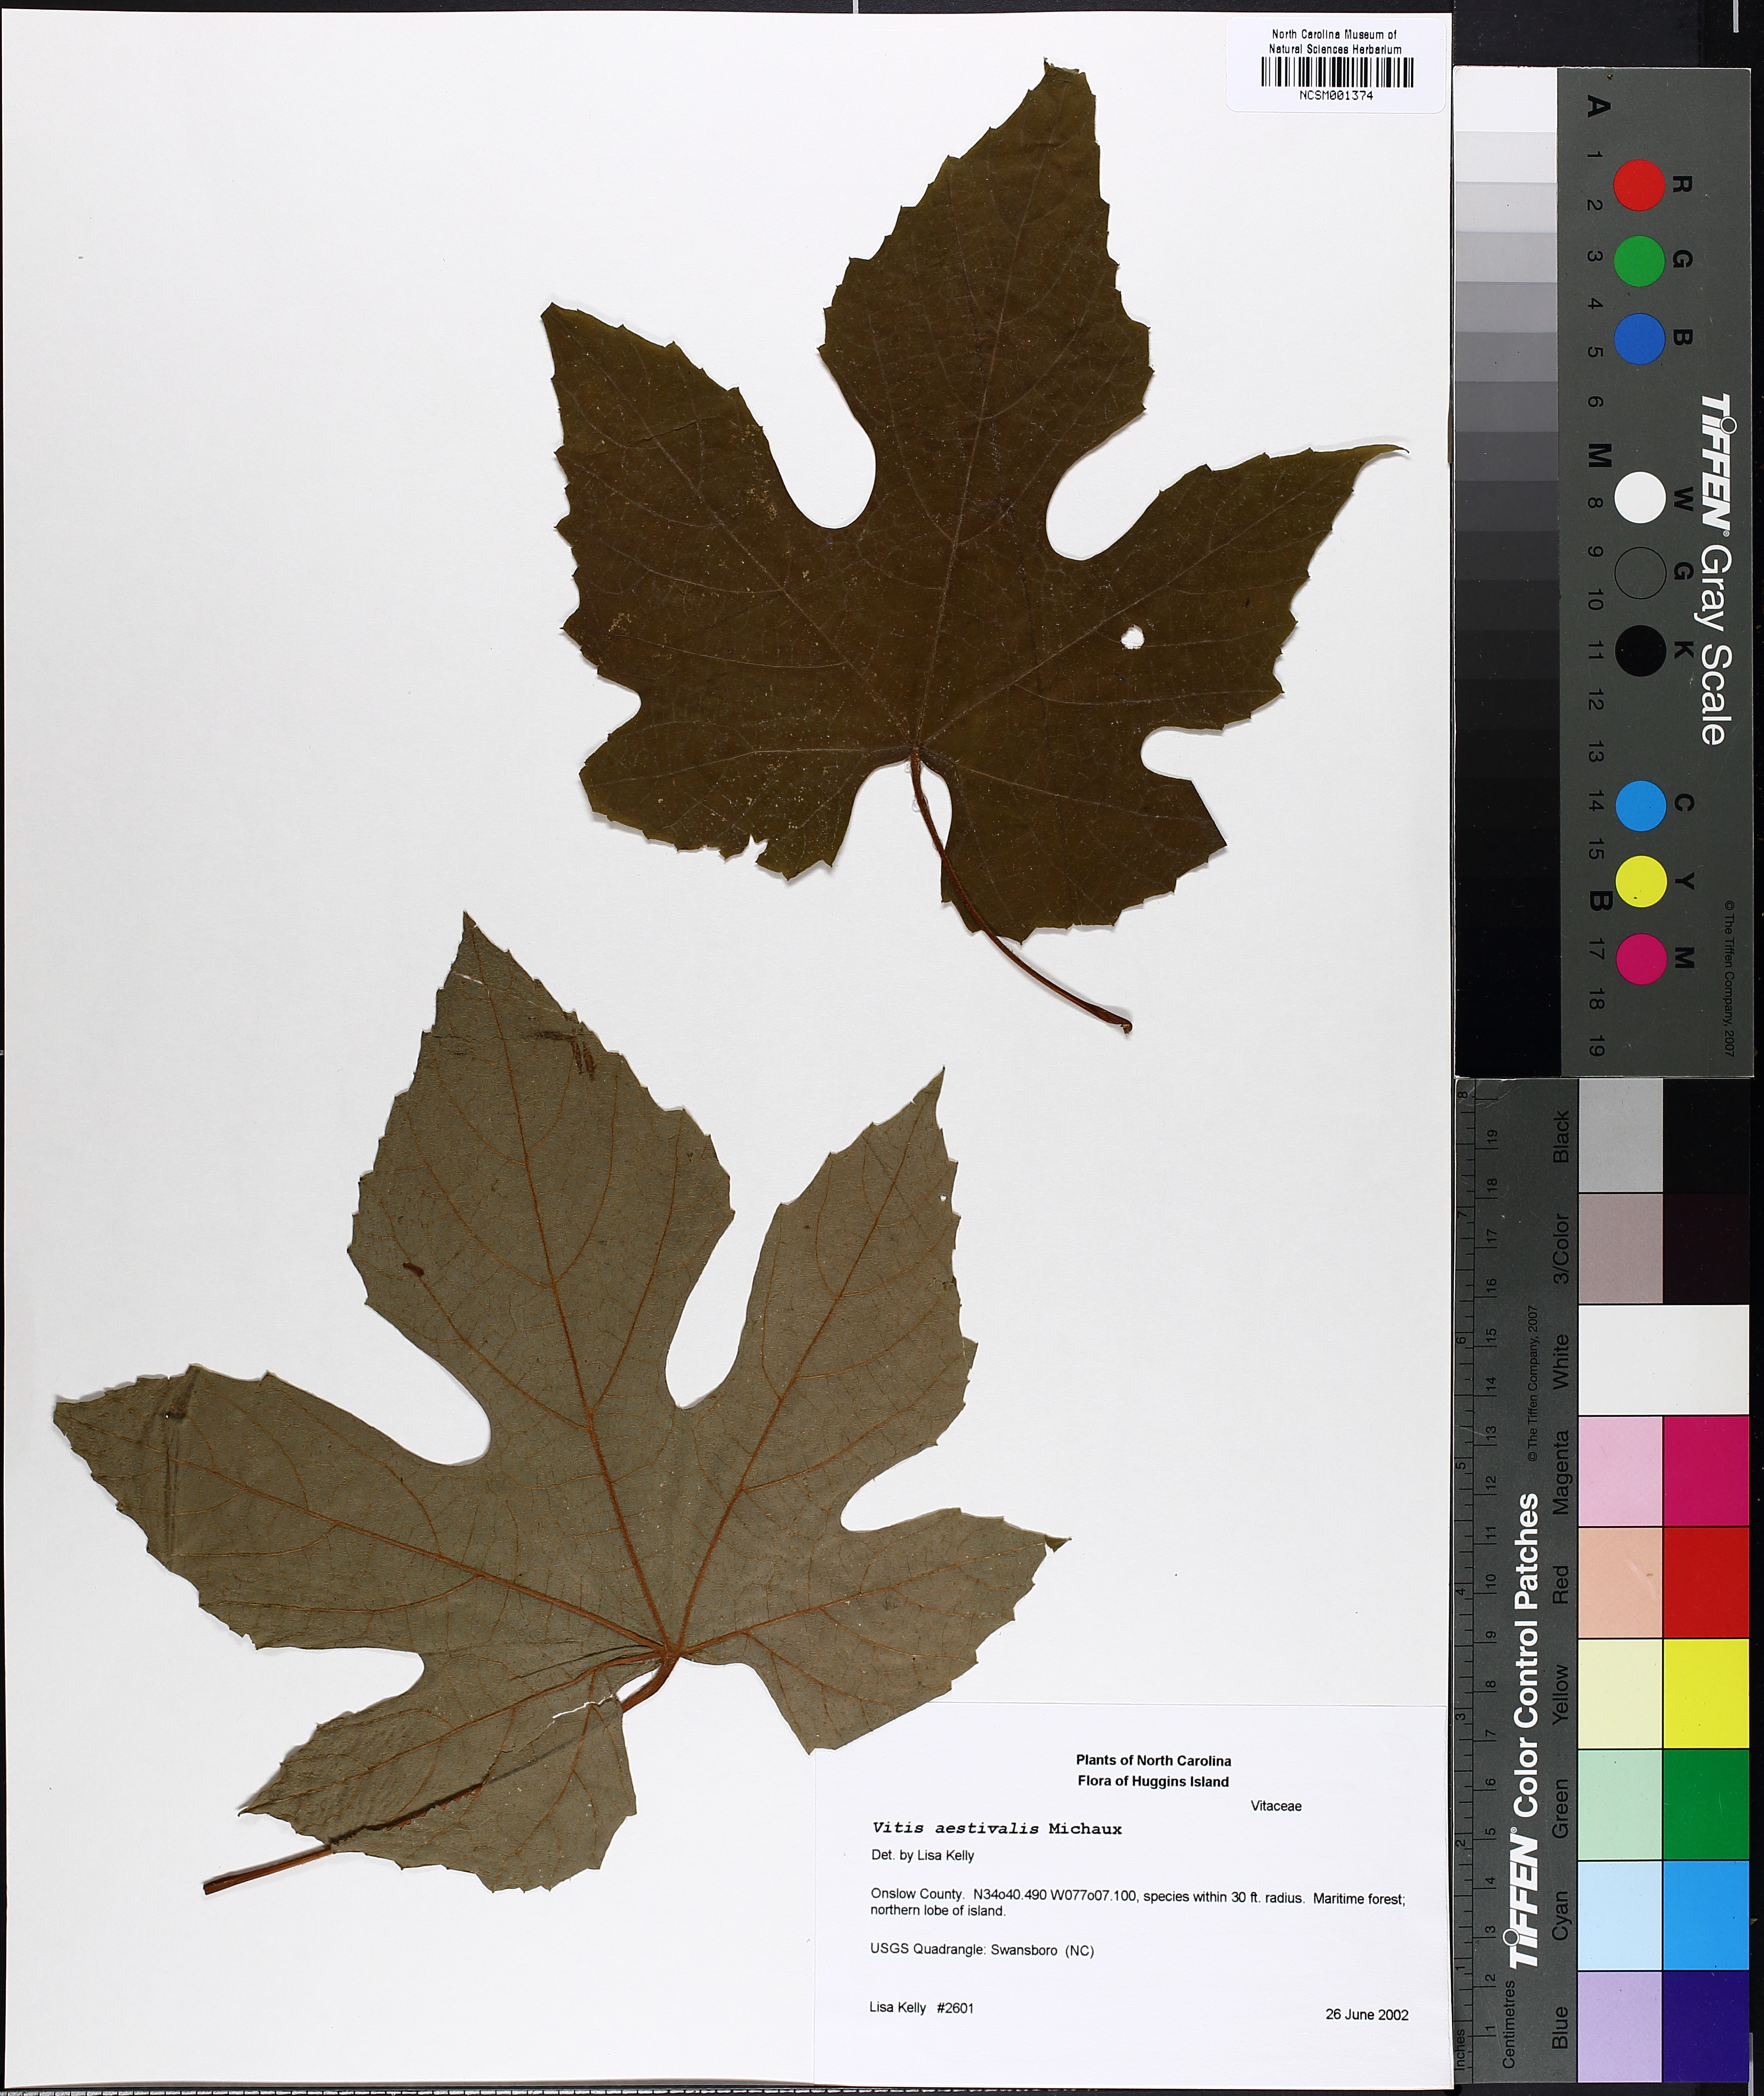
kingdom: Plantae
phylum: Tracheophyta
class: Magnoliopsida
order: Vitales
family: Vitaceae
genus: Vitis
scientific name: Vitis aestivalis
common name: Pigeon grape
